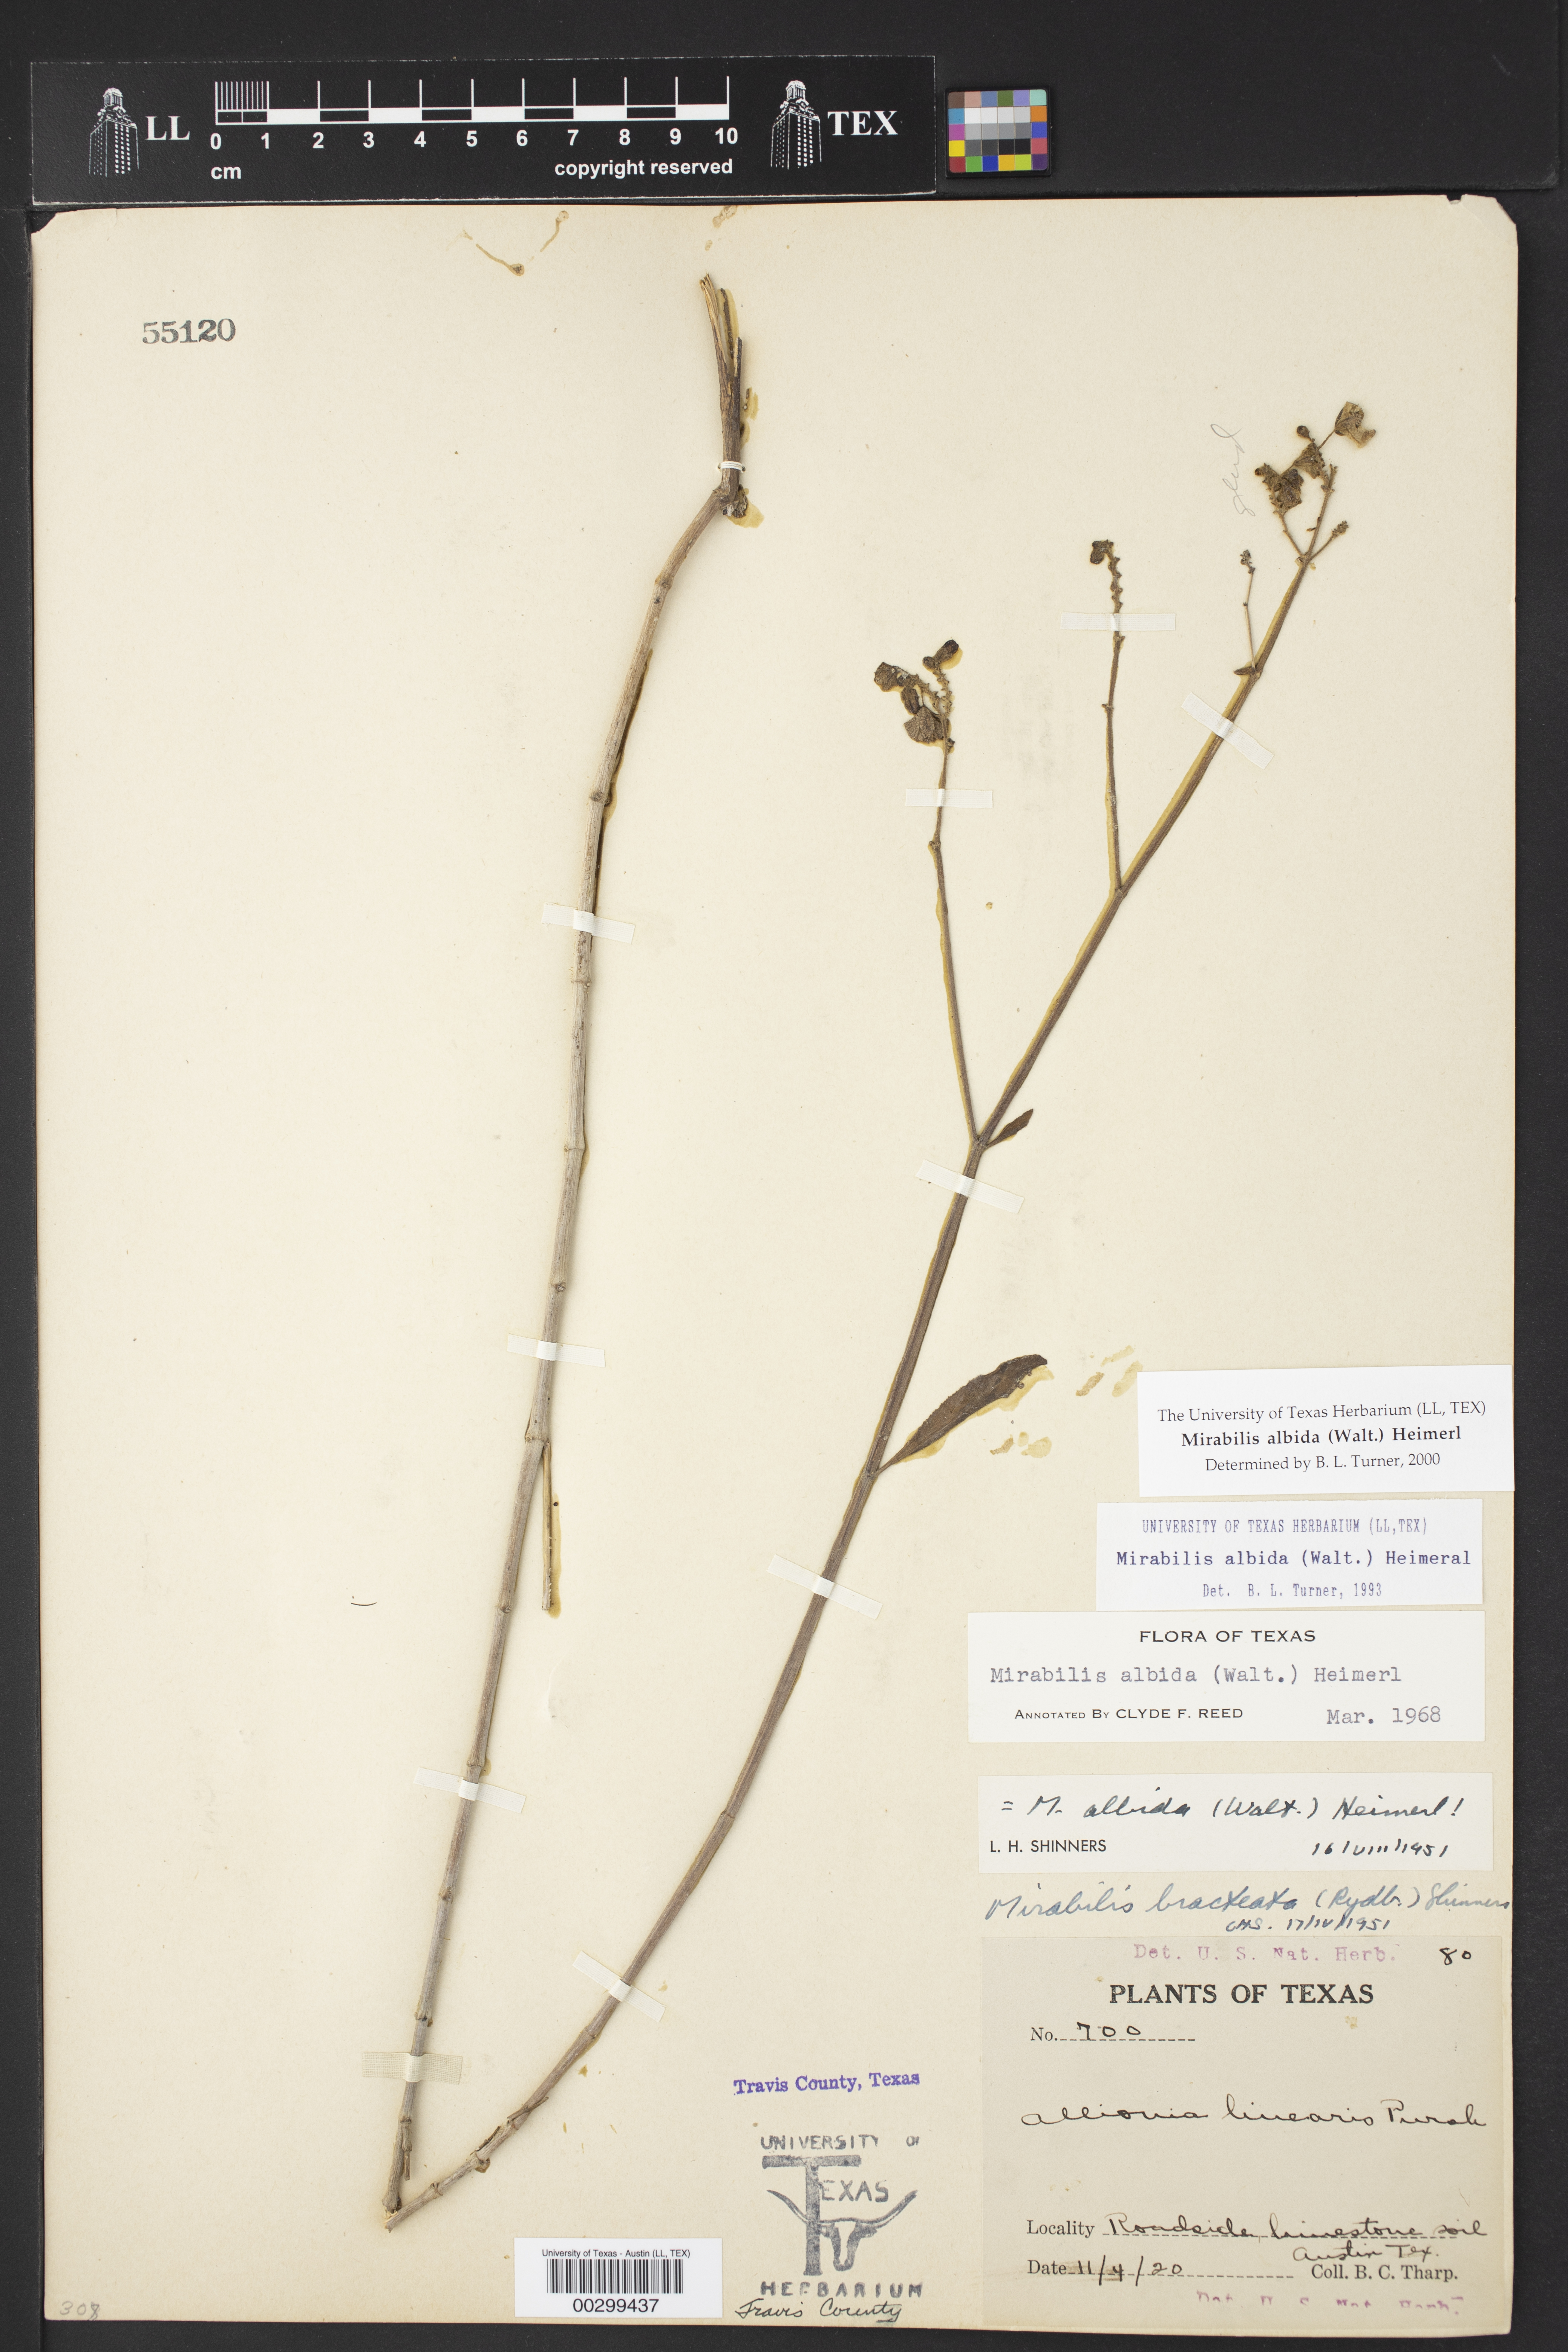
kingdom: Plantae
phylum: Tracheophyta
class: Magnoliopsida
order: Caryophyllales
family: Nyctaginaceae
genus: Mirabilis
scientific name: Mirabilis albida
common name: Hairy four-o'clock
